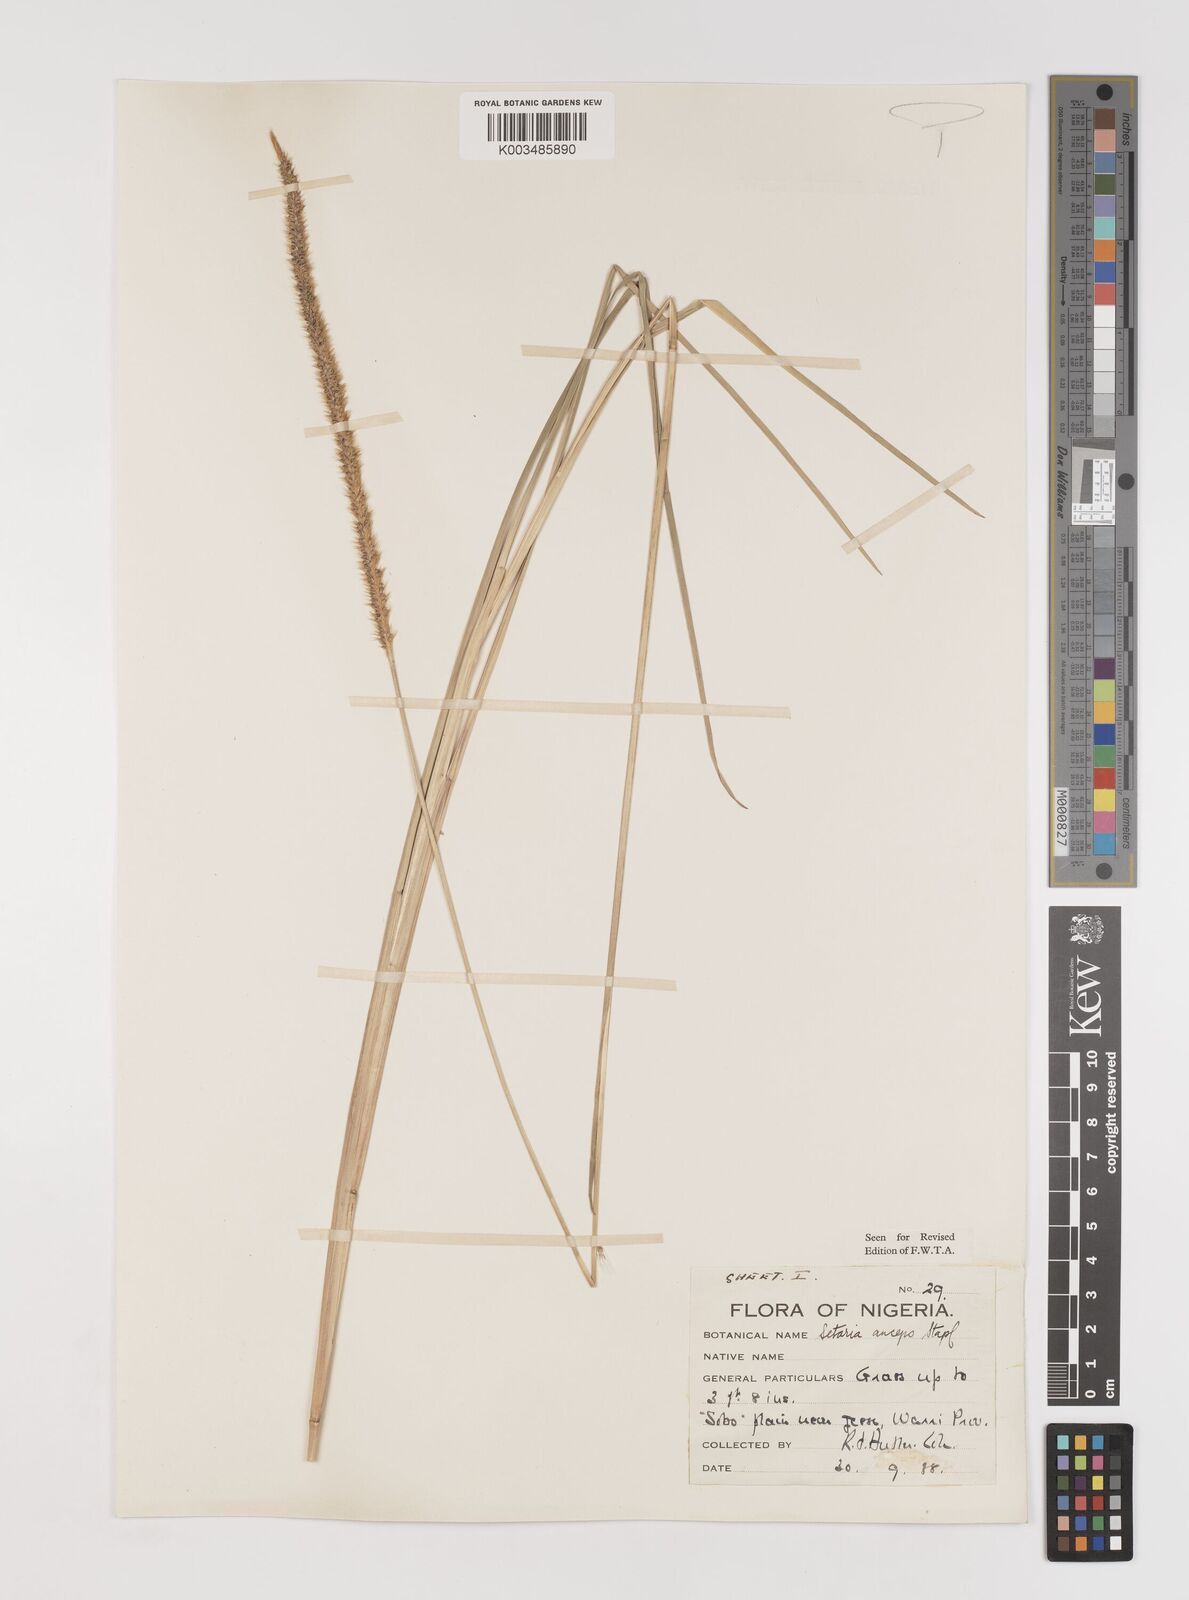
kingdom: Plantae
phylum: Tracheophyta
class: Liliopsida
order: Poales
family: Poaceae
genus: Setaria
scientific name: Setaria sphacelata
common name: African bristlegrass
